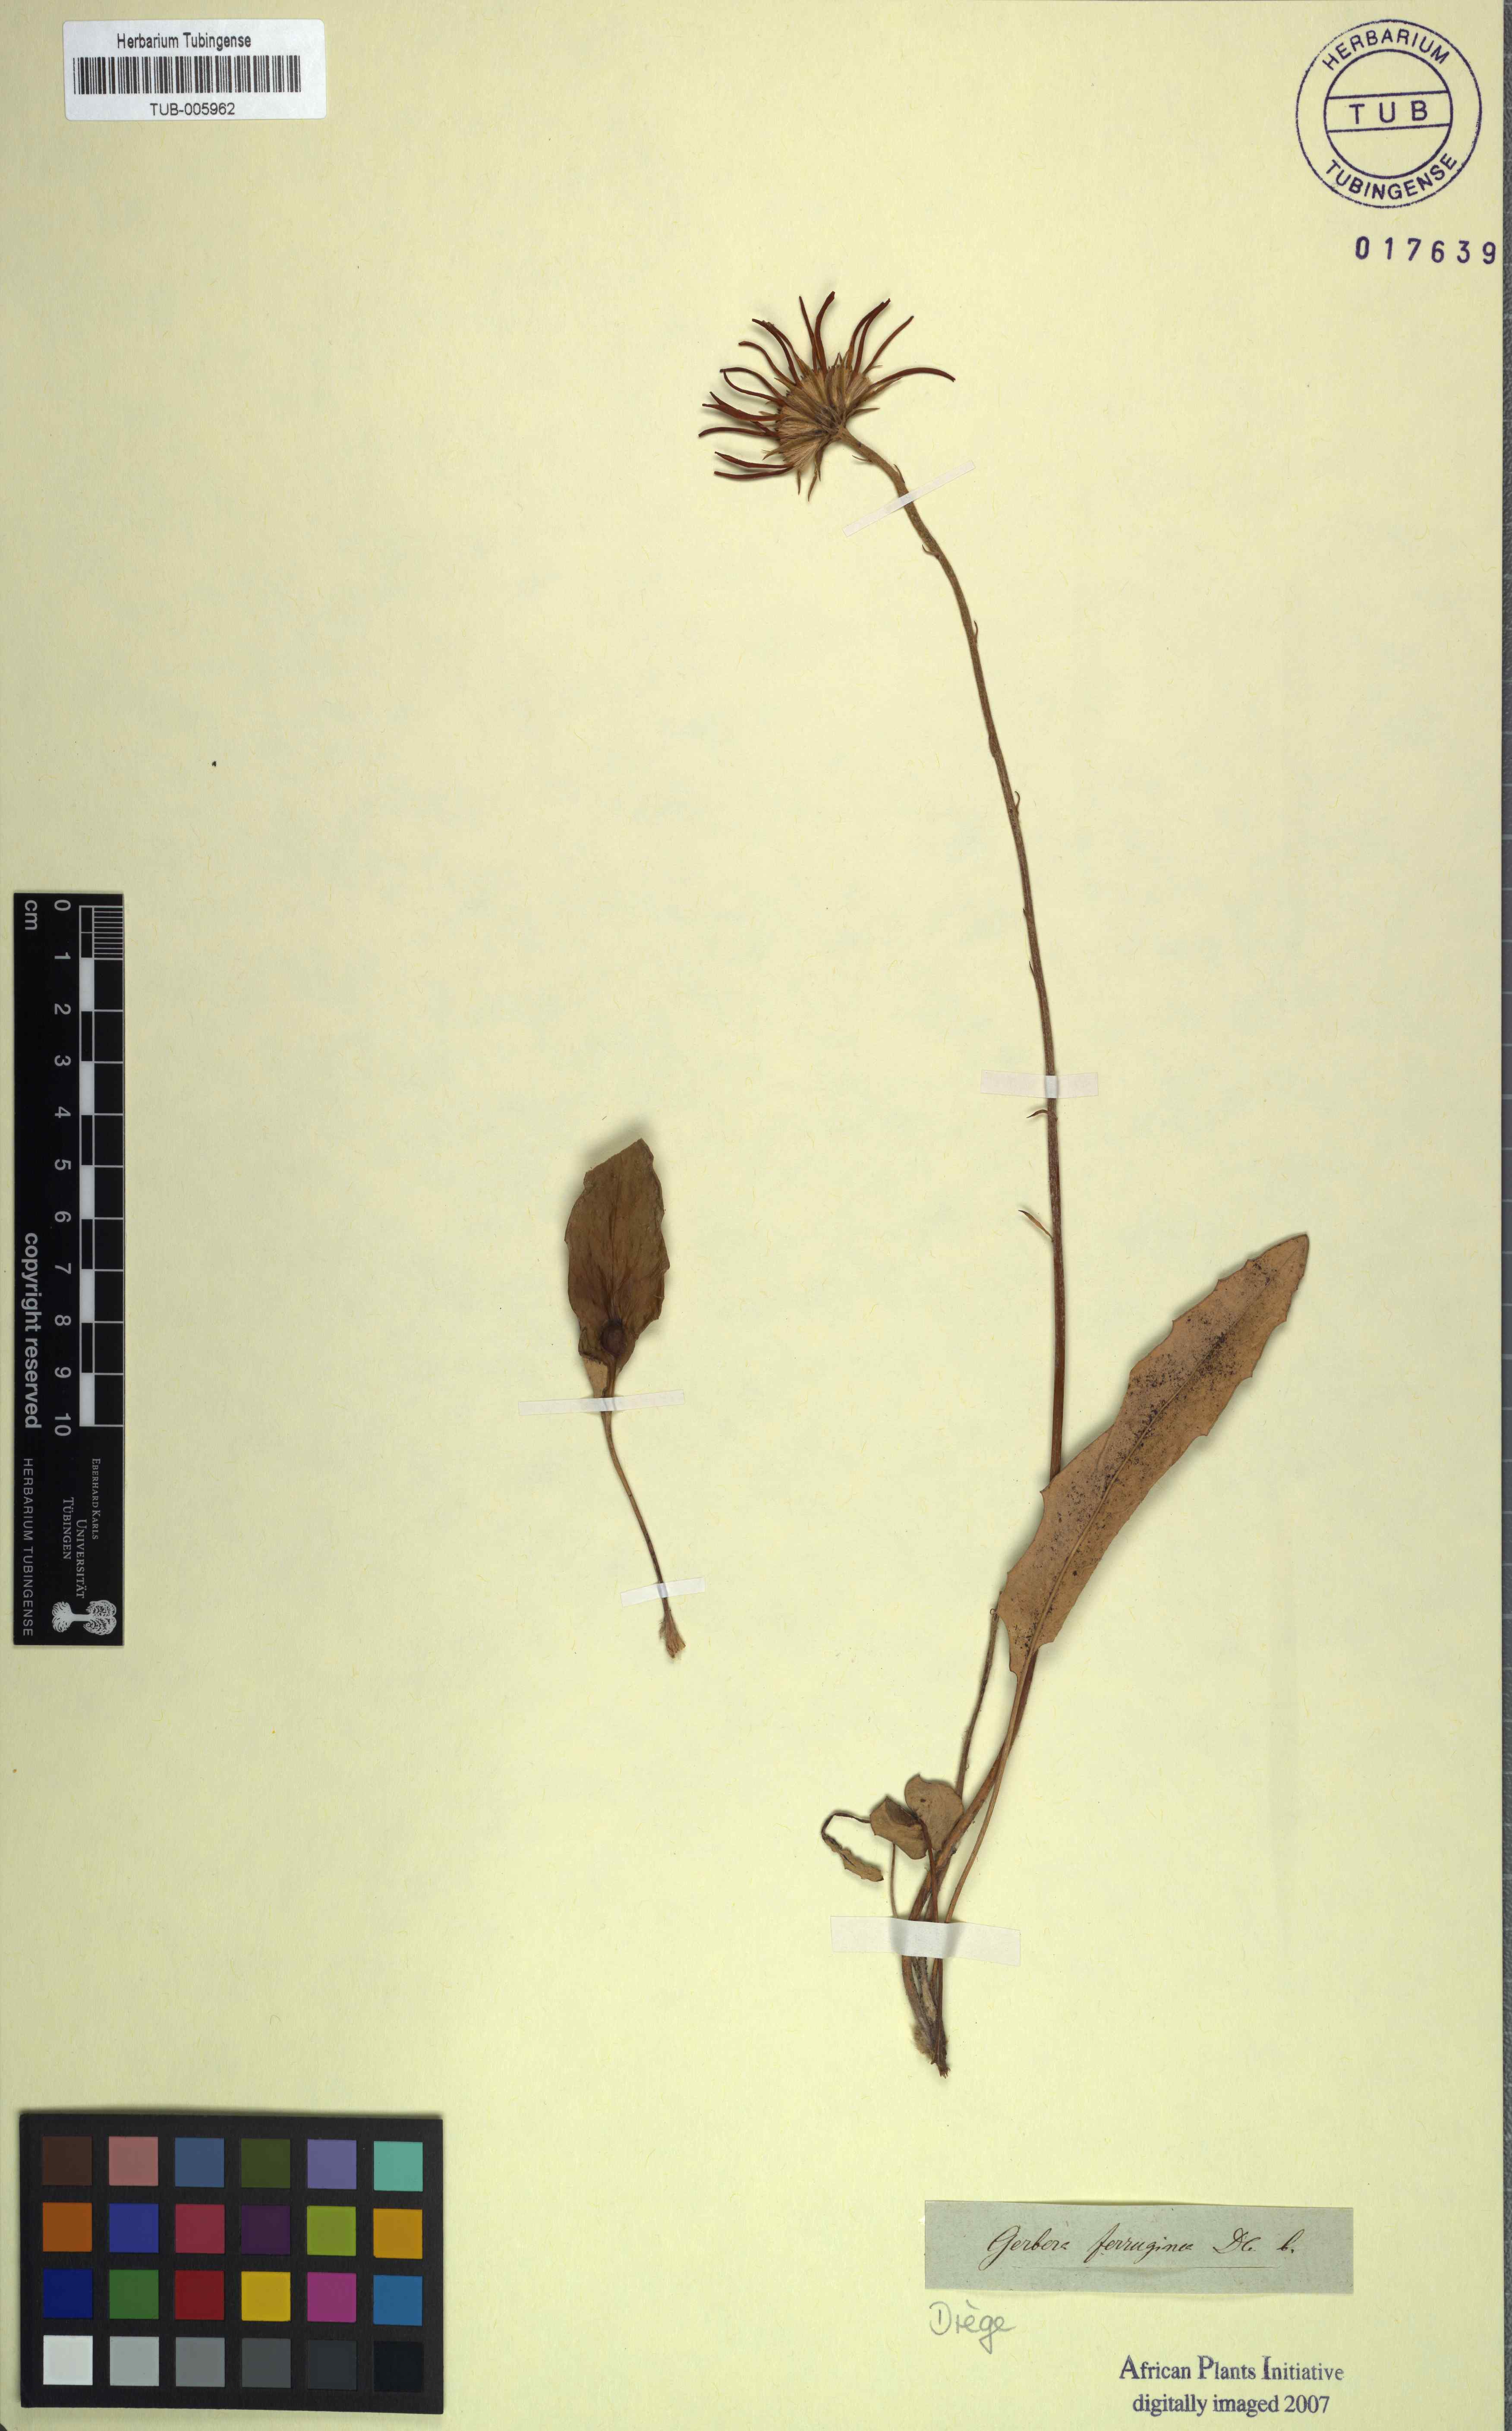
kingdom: Plantae
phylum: Tracheophyta
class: Magnoliopsida
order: Asterales
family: Asteraceae
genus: Gerbera
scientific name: Gerbera crocea
